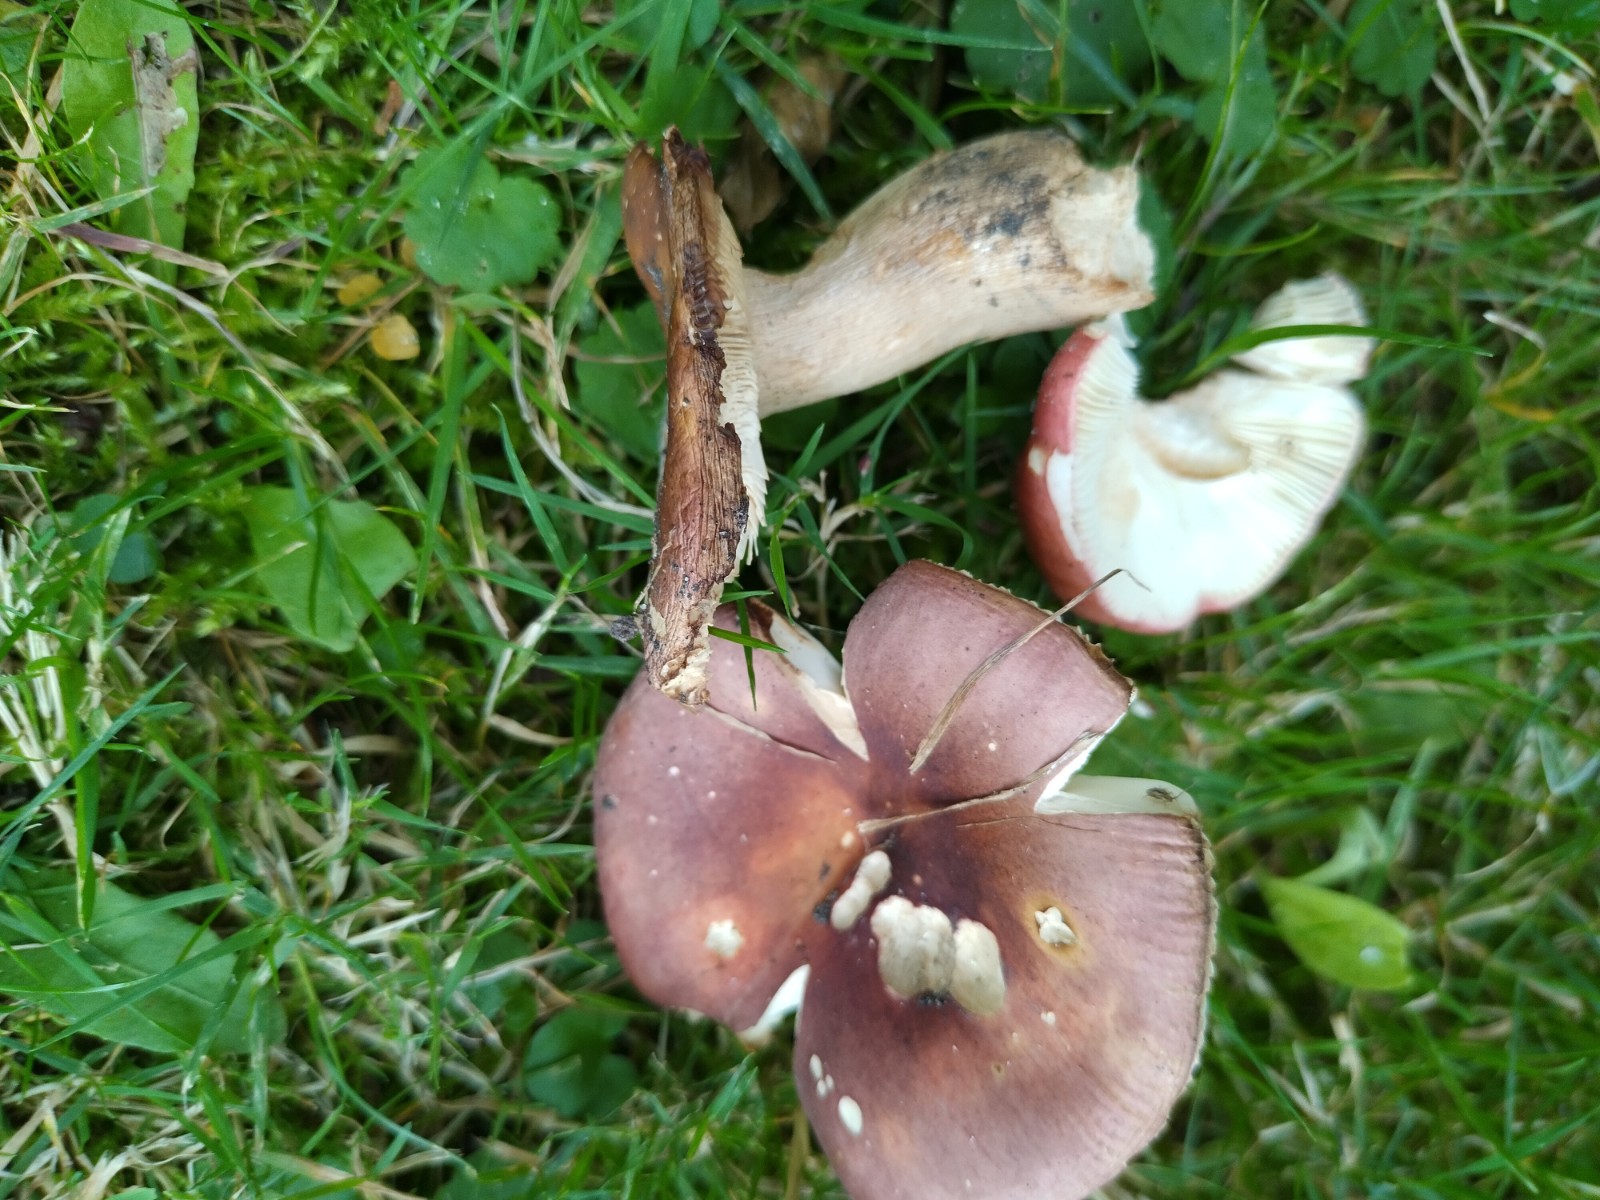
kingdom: Fungi
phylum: Basidiomycota
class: Agaricomycetes
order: Russulales
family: Russulaceae
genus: Russula
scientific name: Russula graveolens
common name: bugtet skørhat
